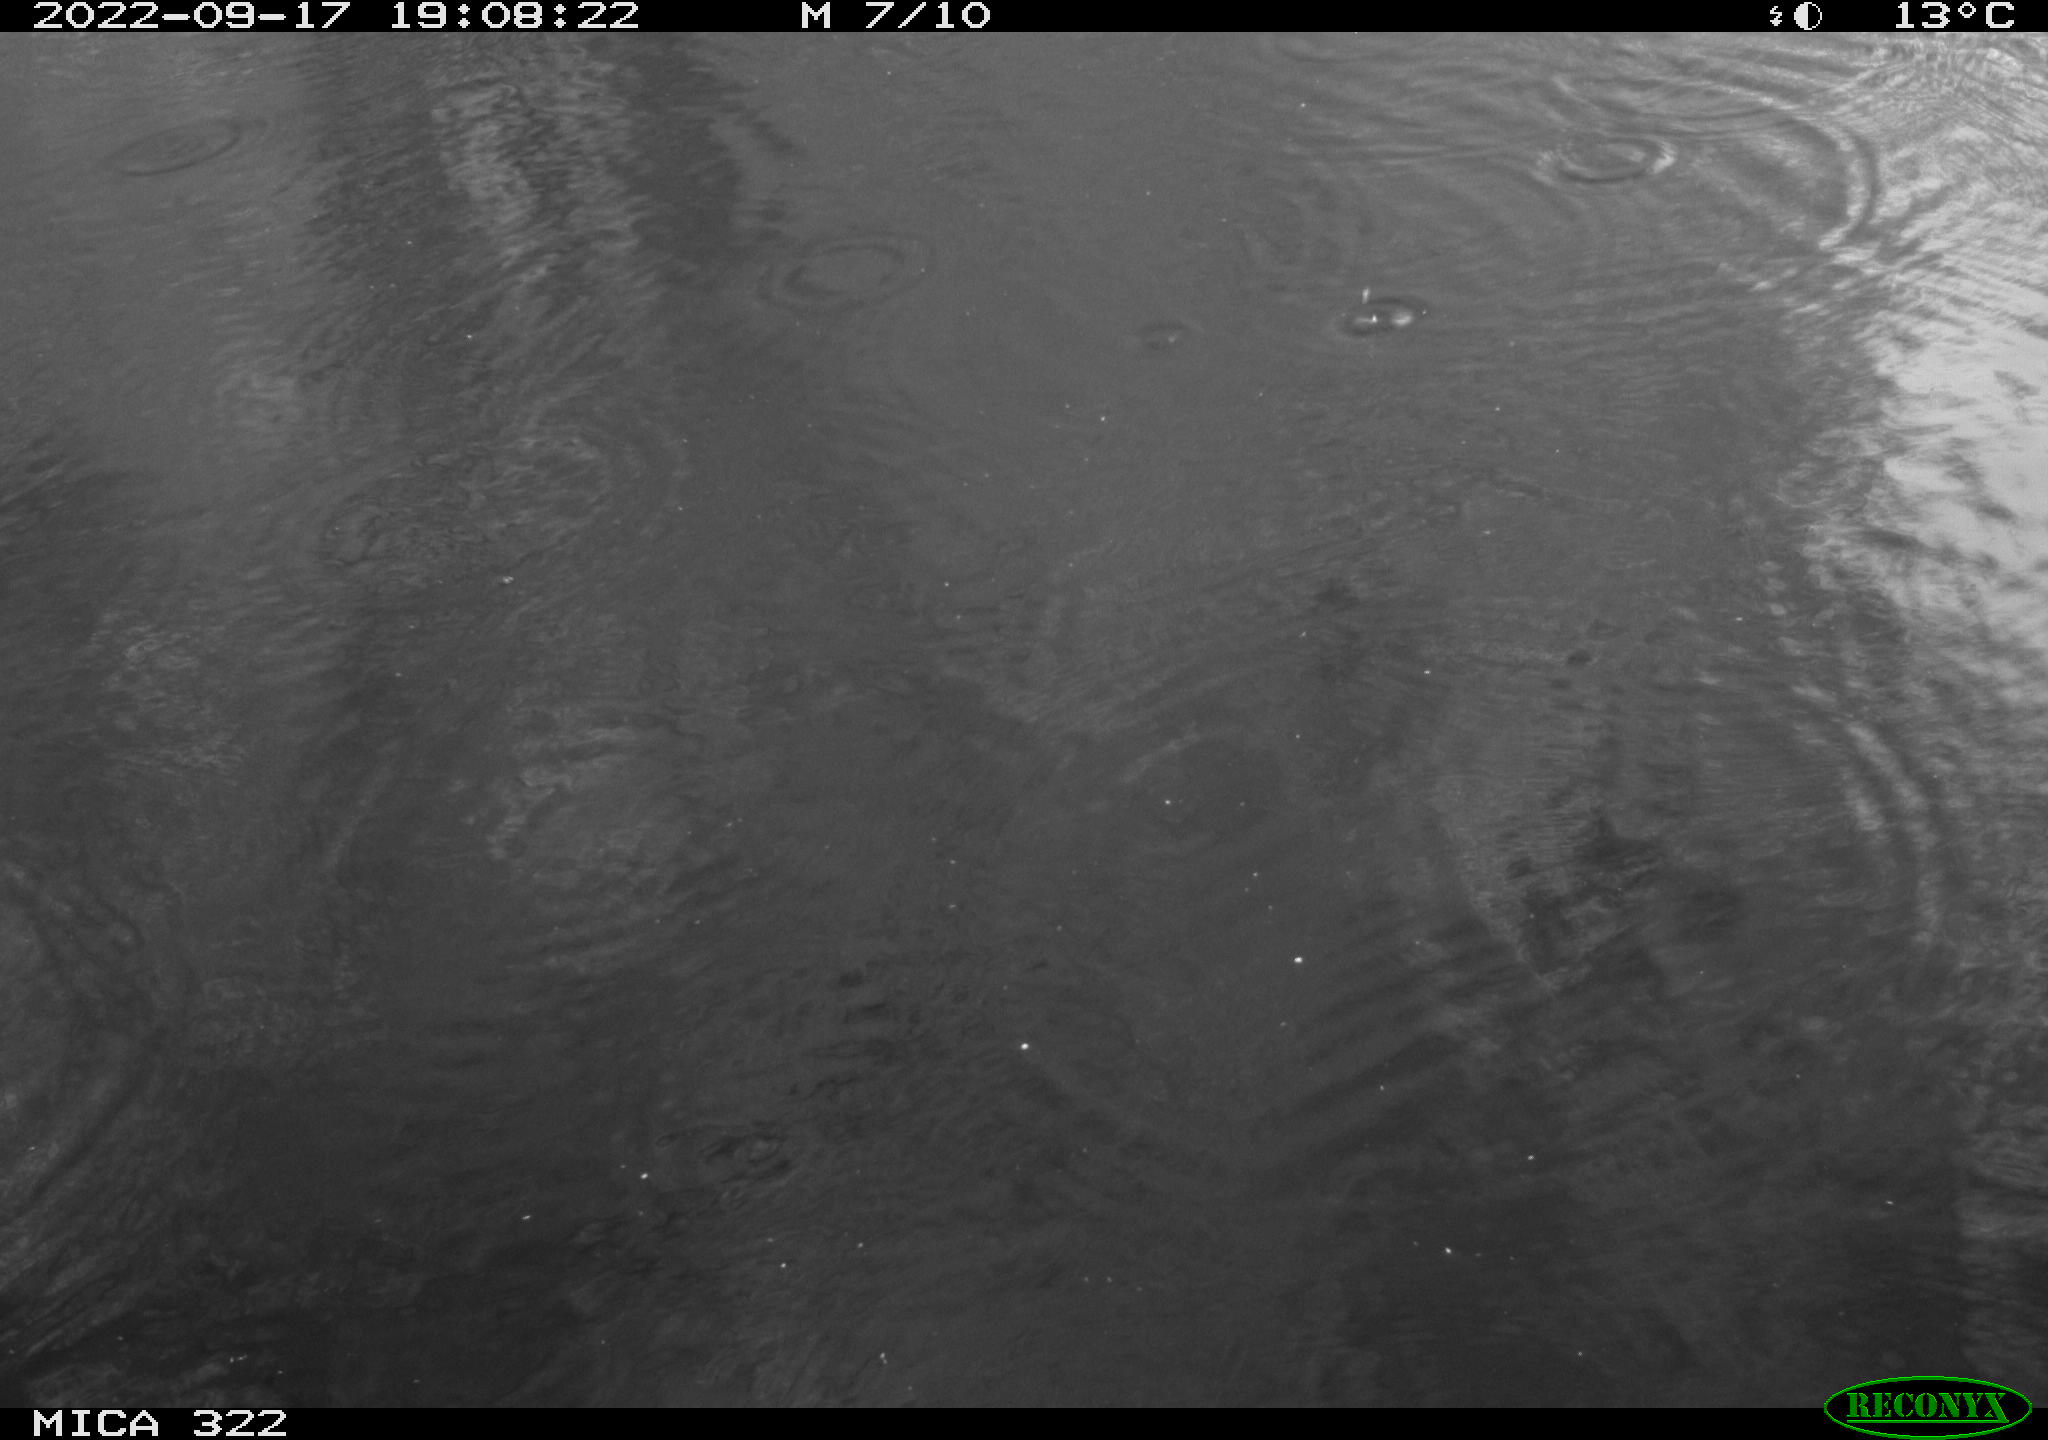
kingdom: Animalia
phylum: Chordata
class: Aves
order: Gruiformes
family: Rallidae
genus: Gallinula
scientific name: Gallinula chloropus
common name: Common moorhen
